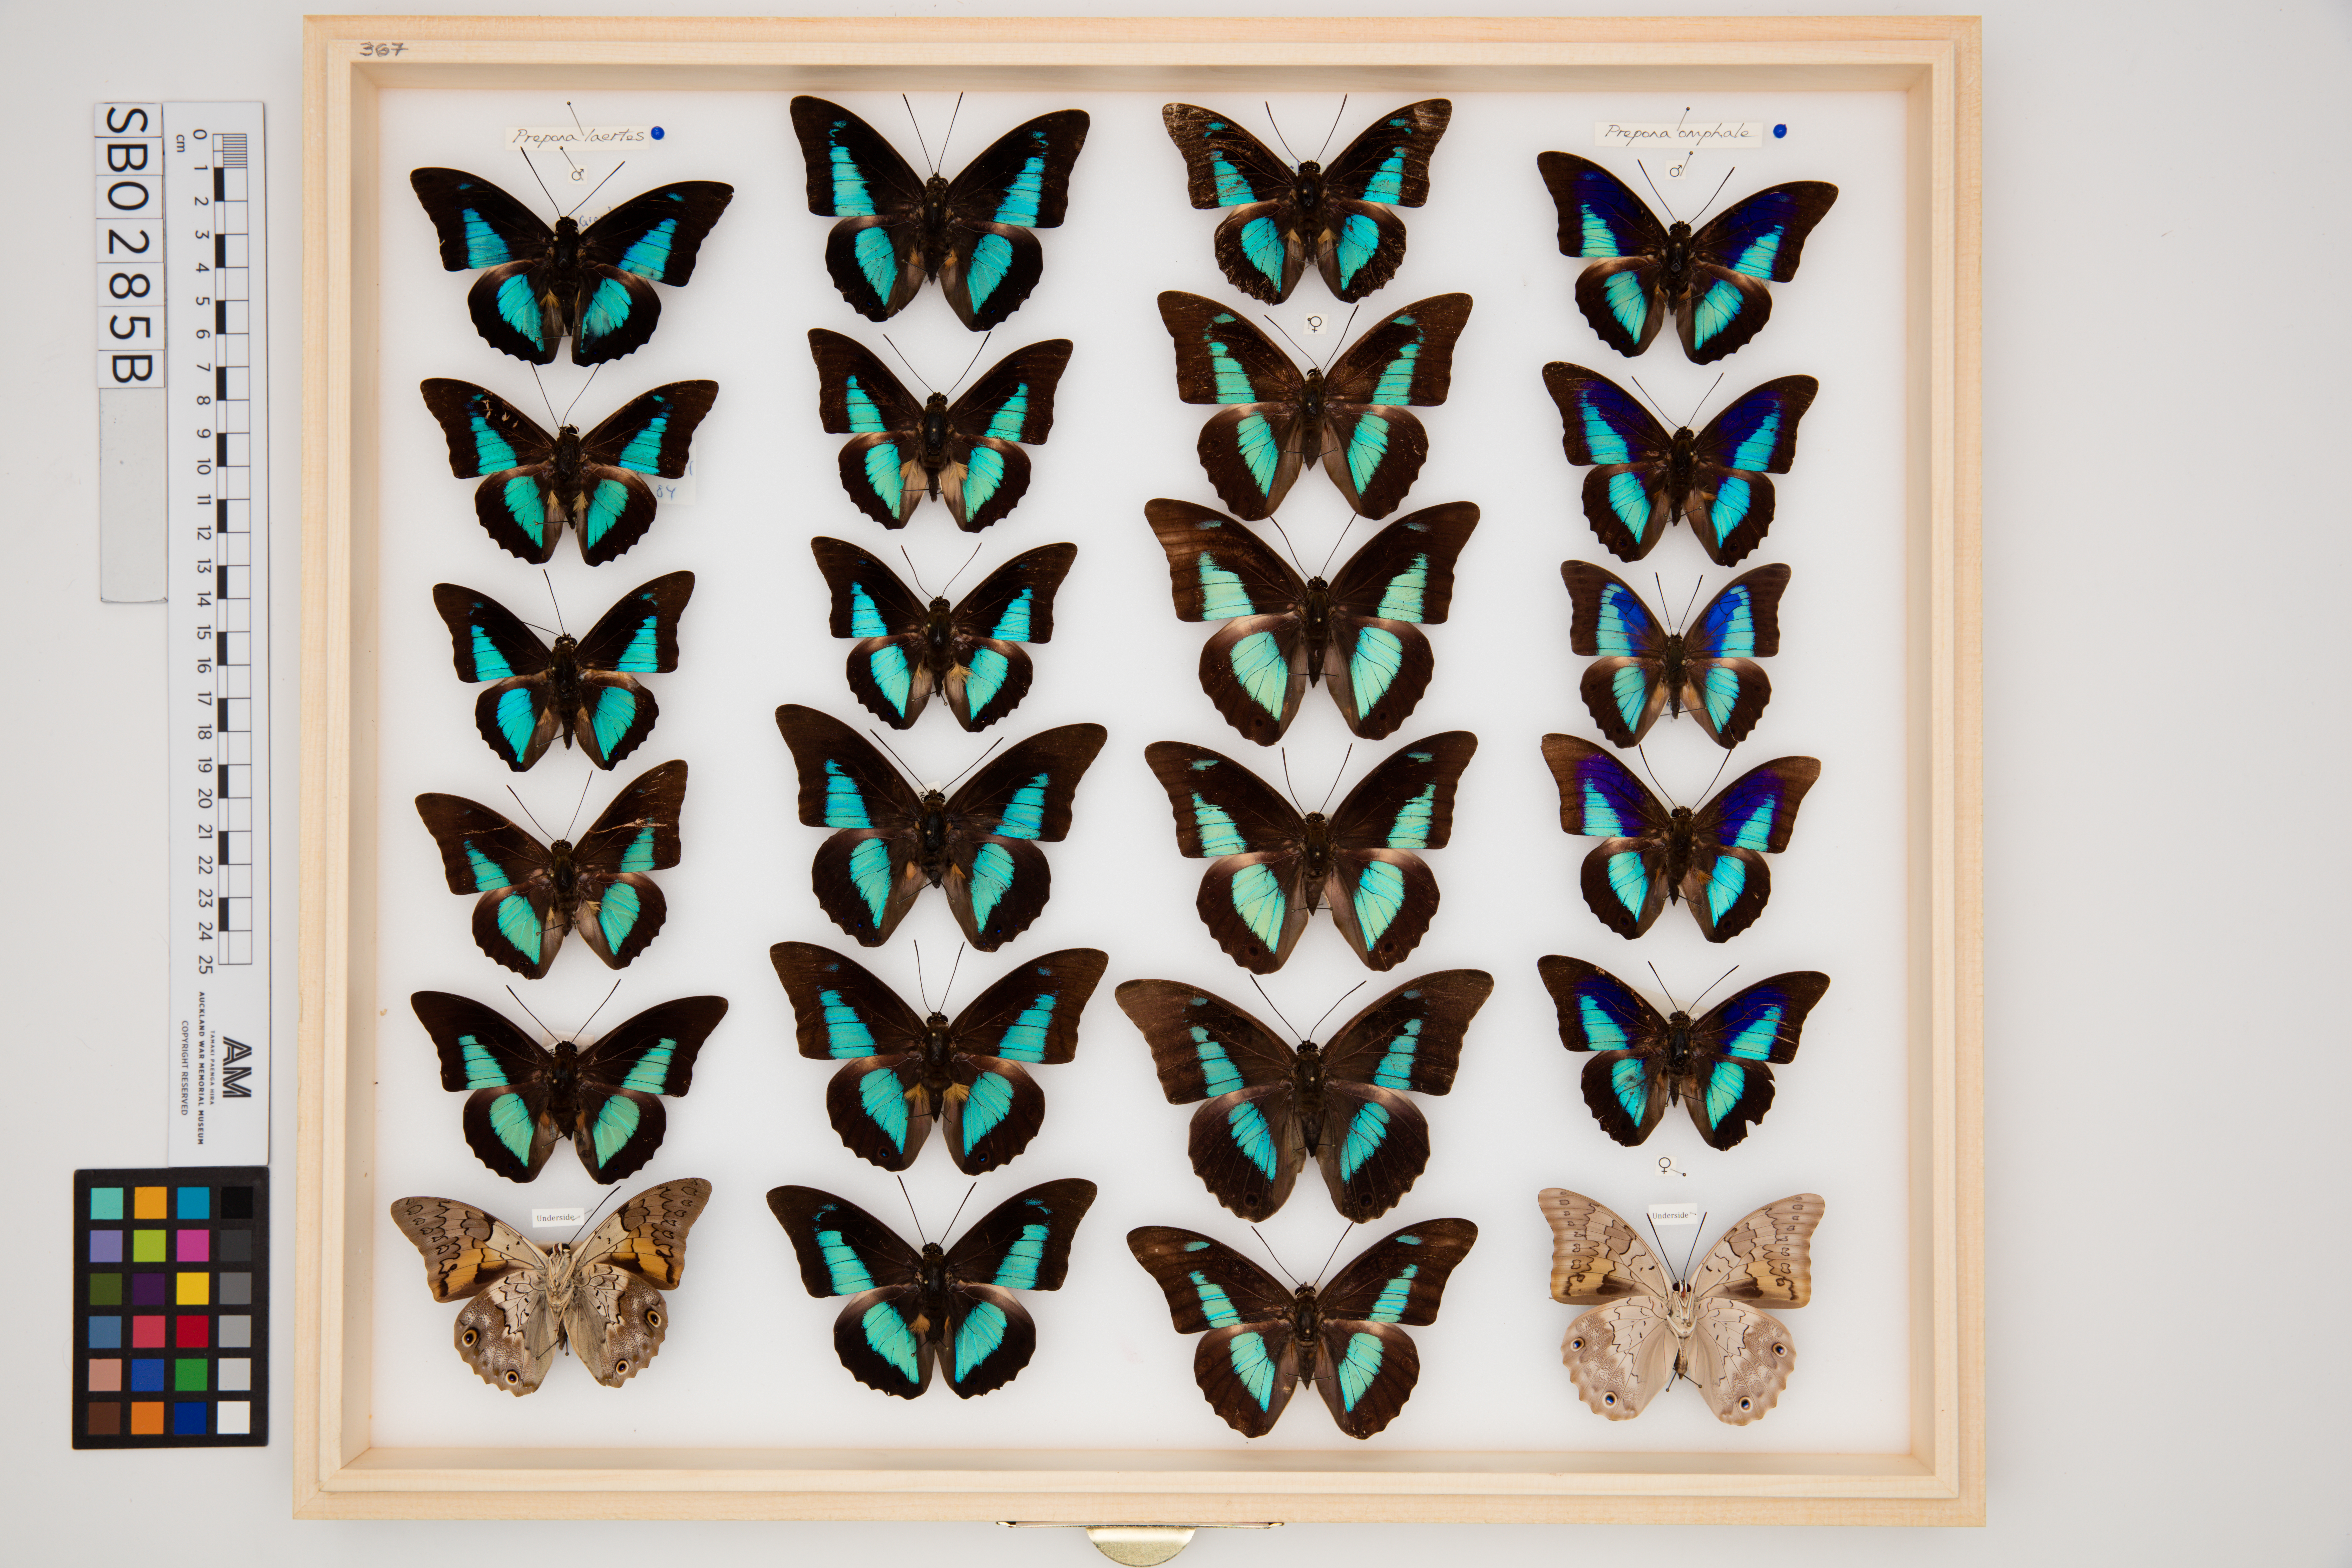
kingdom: Animalia
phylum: Arthropoda
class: Insecta
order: Lepidoptera
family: Nymphalidae
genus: Prepona
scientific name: Prepona omphale
